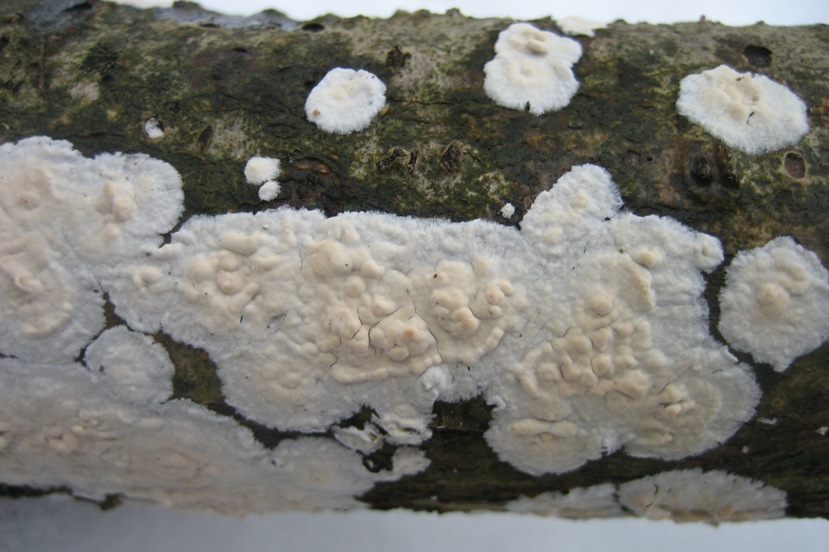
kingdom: Fungi
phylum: Basidiomycota
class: Agaricomycetes
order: Agaricales
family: Physalacriaceae
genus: Cylindrobasidium
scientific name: Cylindrobasidium evolvens
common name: sprækkehinde
